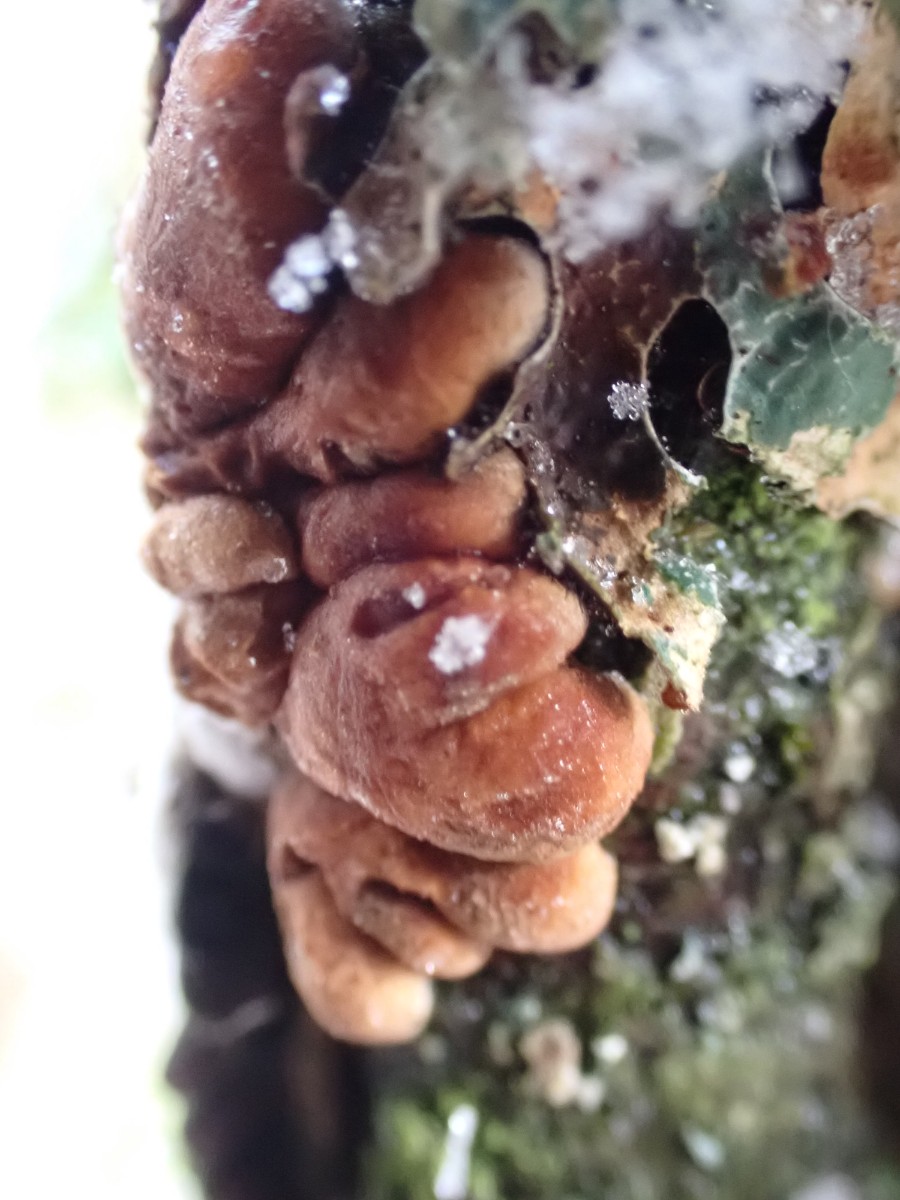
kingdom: Fungi
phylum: Ascomycota
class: Sordariomycetes
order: Hypocreales
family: Hypocreaceae
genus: Hypocreopsis
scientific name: Hypocreopsis lichenoides
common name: pilfinger
